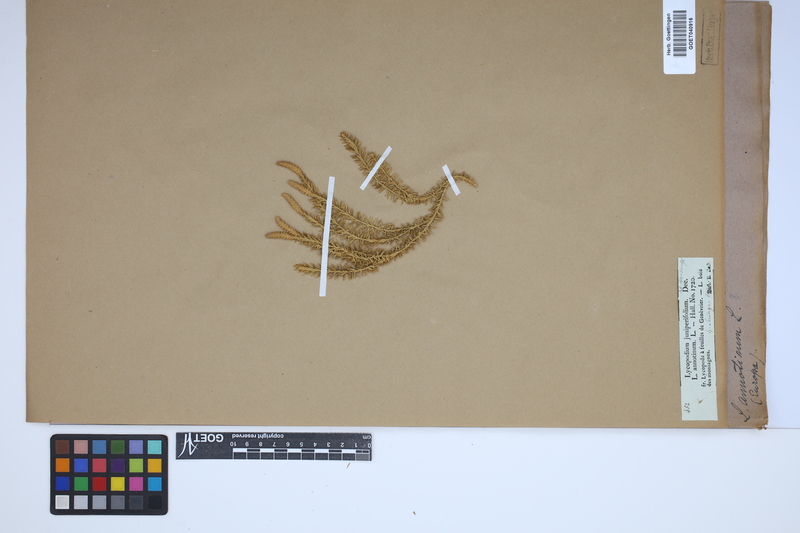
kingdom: Plantae
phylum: Tracheophyta
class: Lycopodiopsida
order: Lycopodiales
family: Lycopodiaceae
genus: Spinulum
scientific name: Spinulum annotinum
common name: Interrupted club-moss
